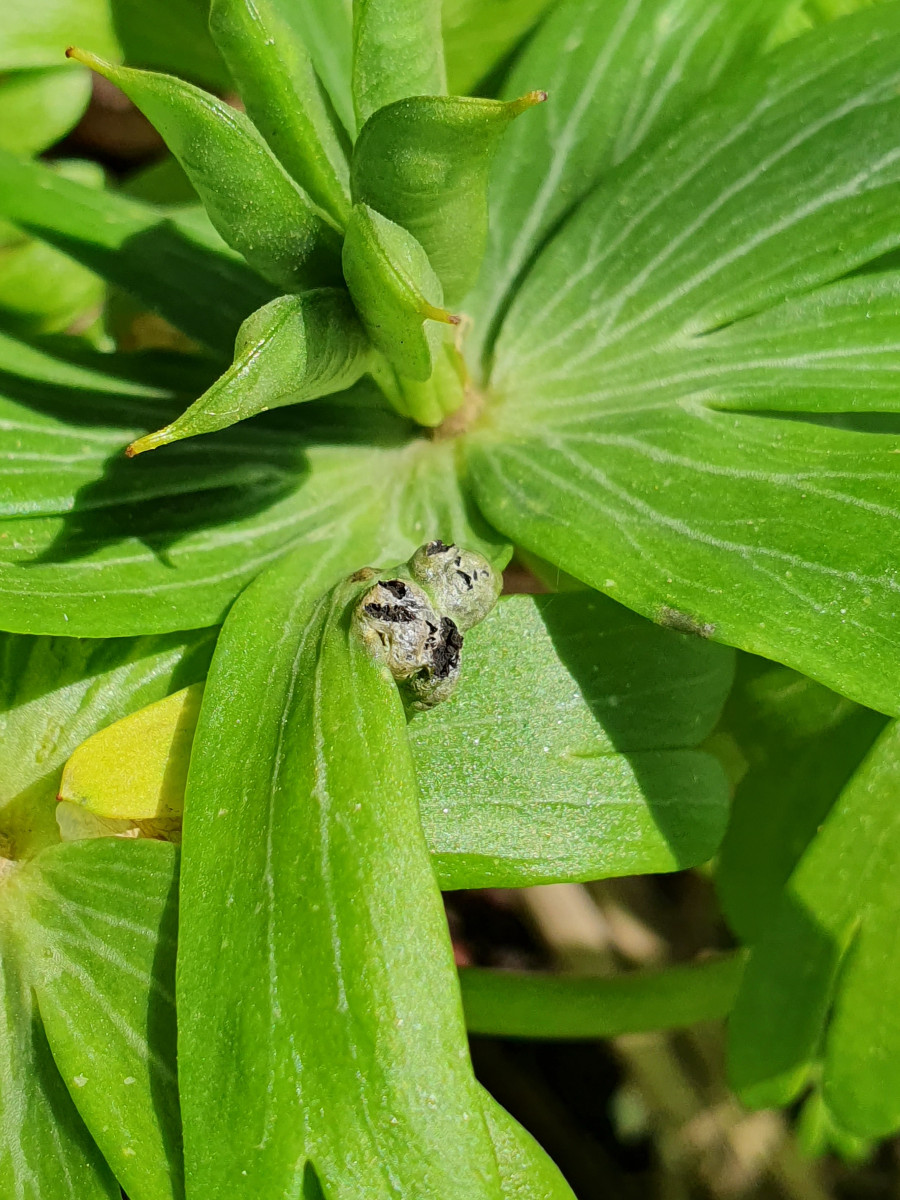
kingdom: Fungi
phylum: Basidiomycota
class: Ustilaginomycetes
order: Urocystidales
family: Urocystidaceae
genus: Urocystis
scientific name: Urocystis eranthidis
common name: erantis-brand
